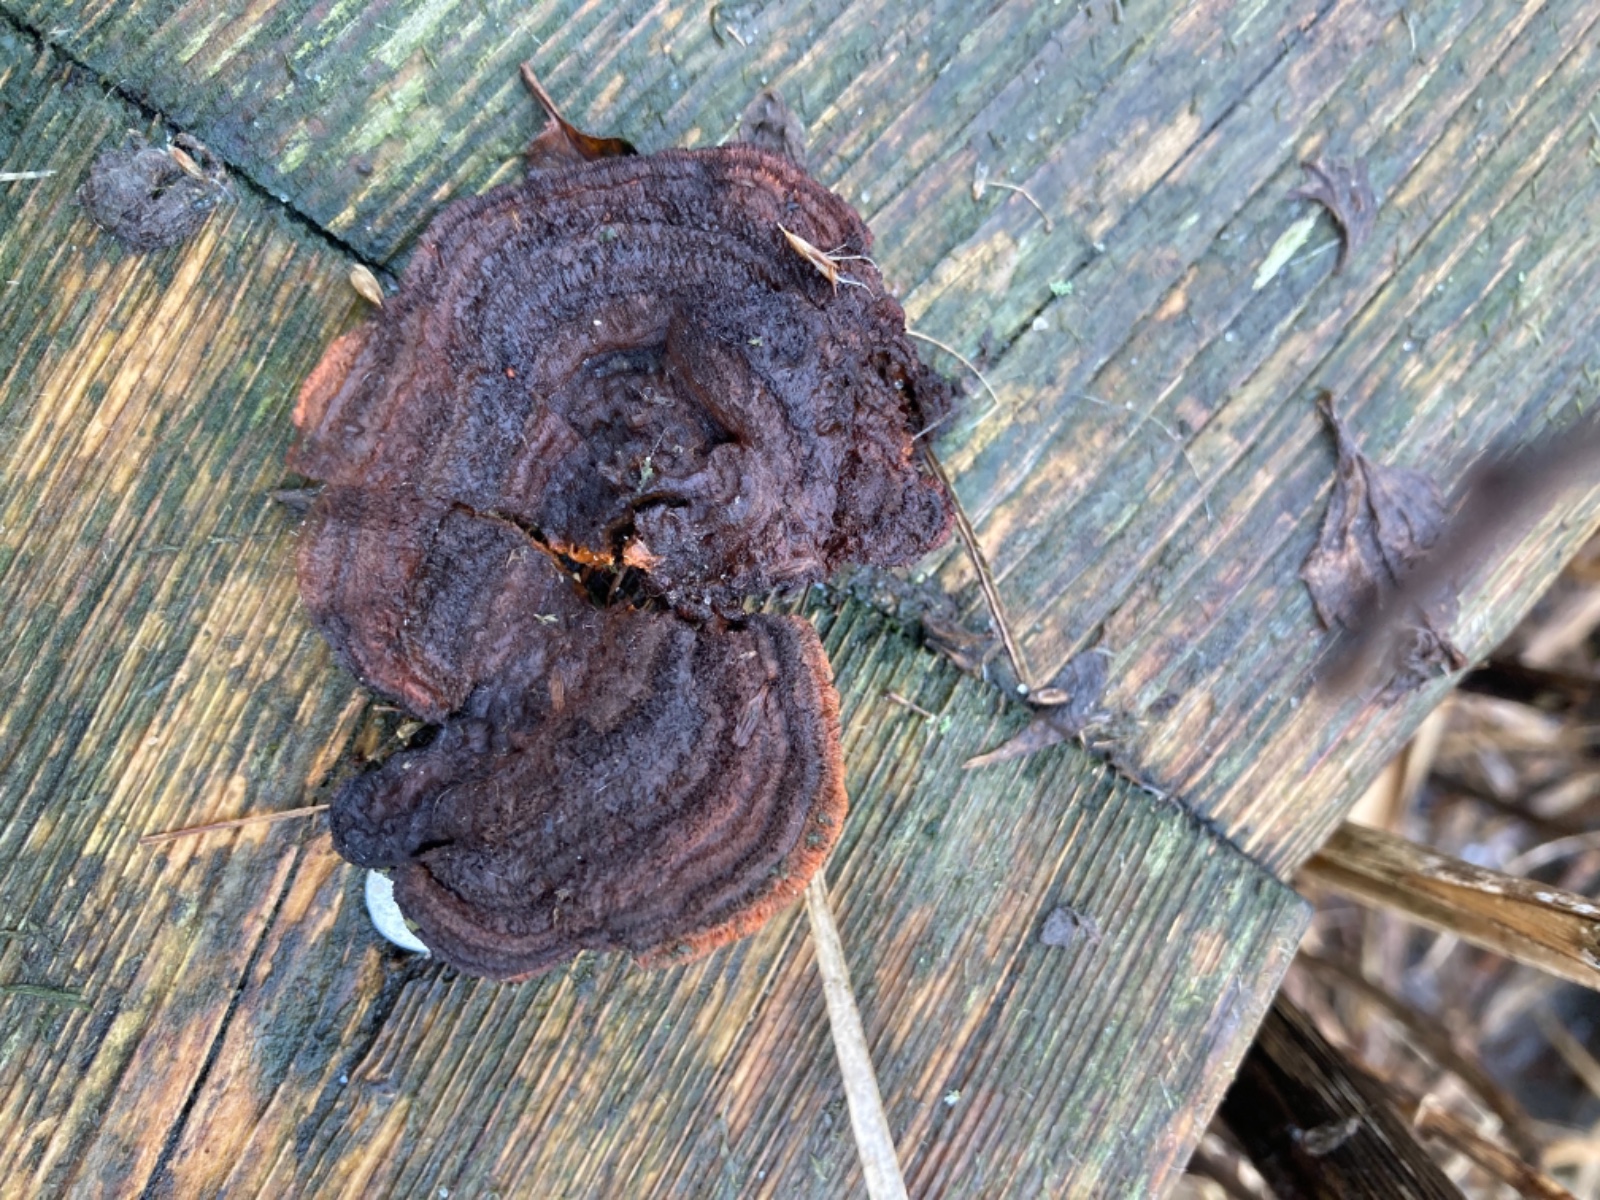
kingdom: Fungi
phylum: Basidiomycota
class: Agaricomycetes
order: Gloeophyllales
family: Gloeophyllaceae
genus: Gloeophyllum
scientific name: Gloeophyllum sepiarium
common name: fyrre-korkhat
